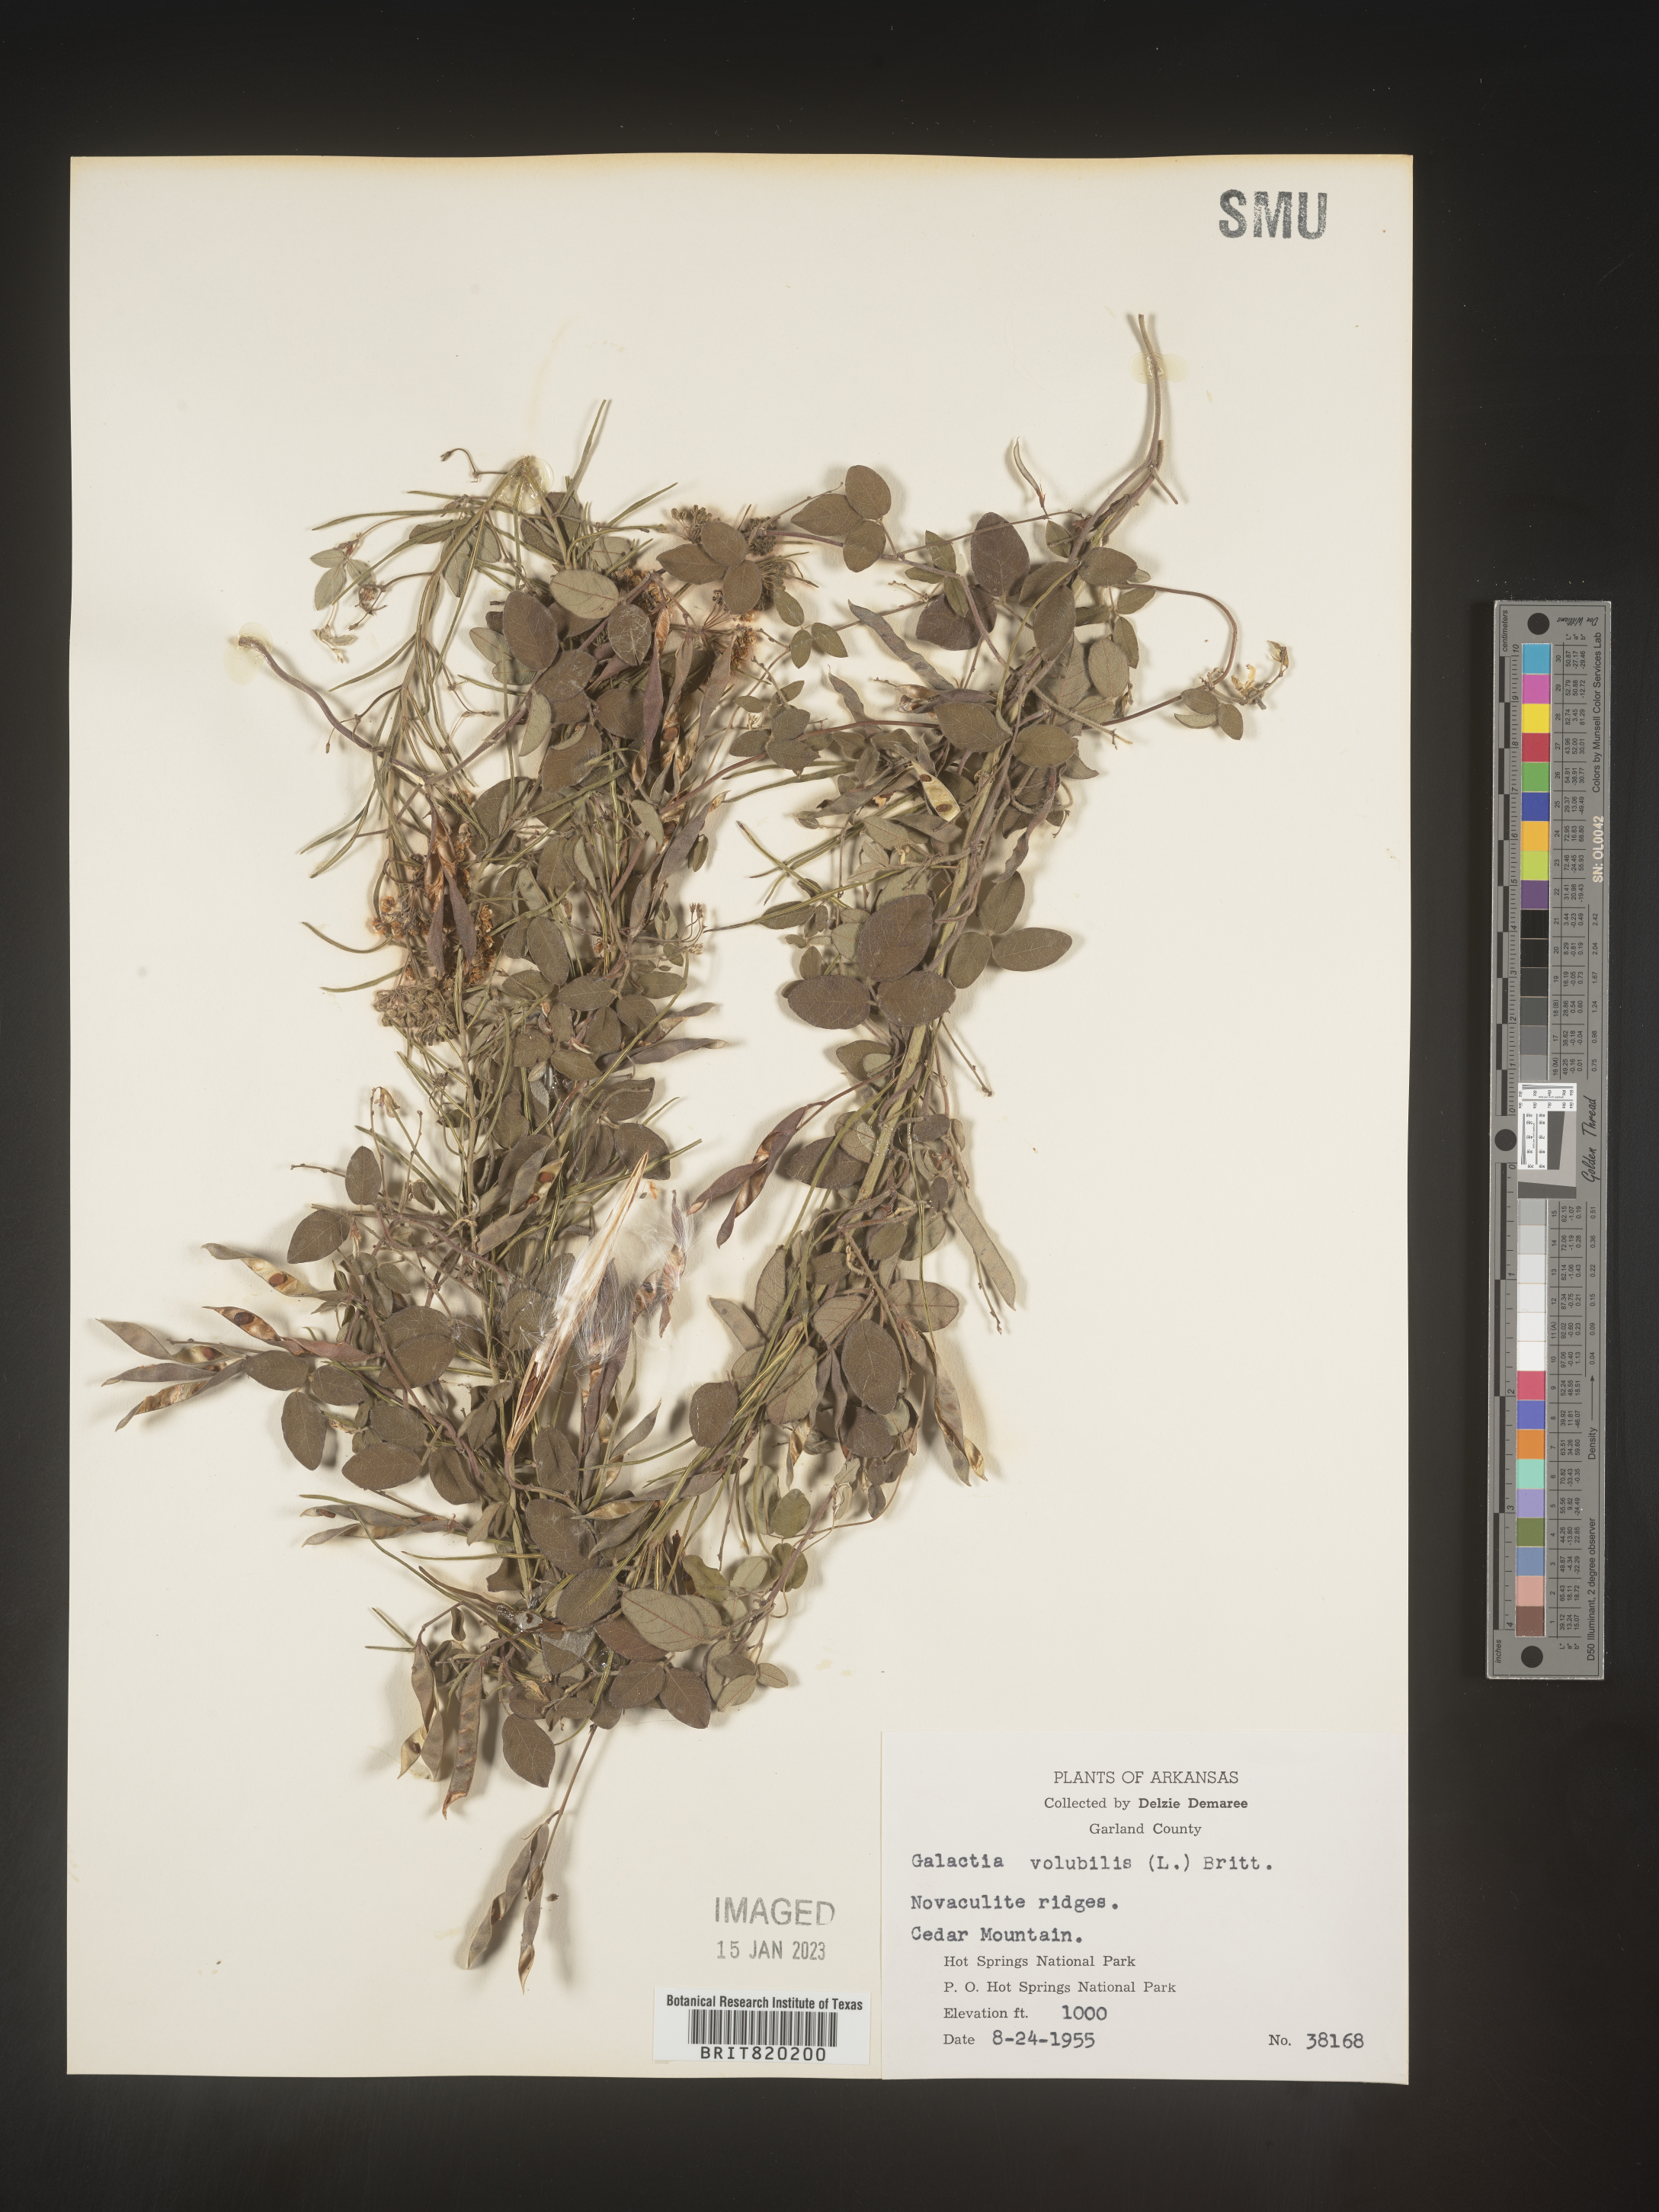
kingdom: Plantae
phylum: Tracheophyta
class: Magnoliopsida
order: Fabales
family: Fabaceae
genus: Galactia
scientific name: Galactia volubilis
